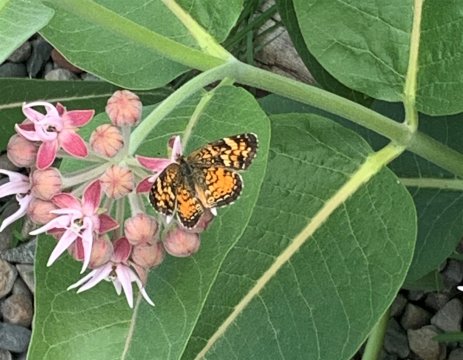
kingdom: Animalia
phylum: Arthropoda
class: Insecta
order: Lepidoptera
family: Nymphalidae
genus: Phyciodes
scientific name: Phyciodes tharos
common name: Field Crescent
